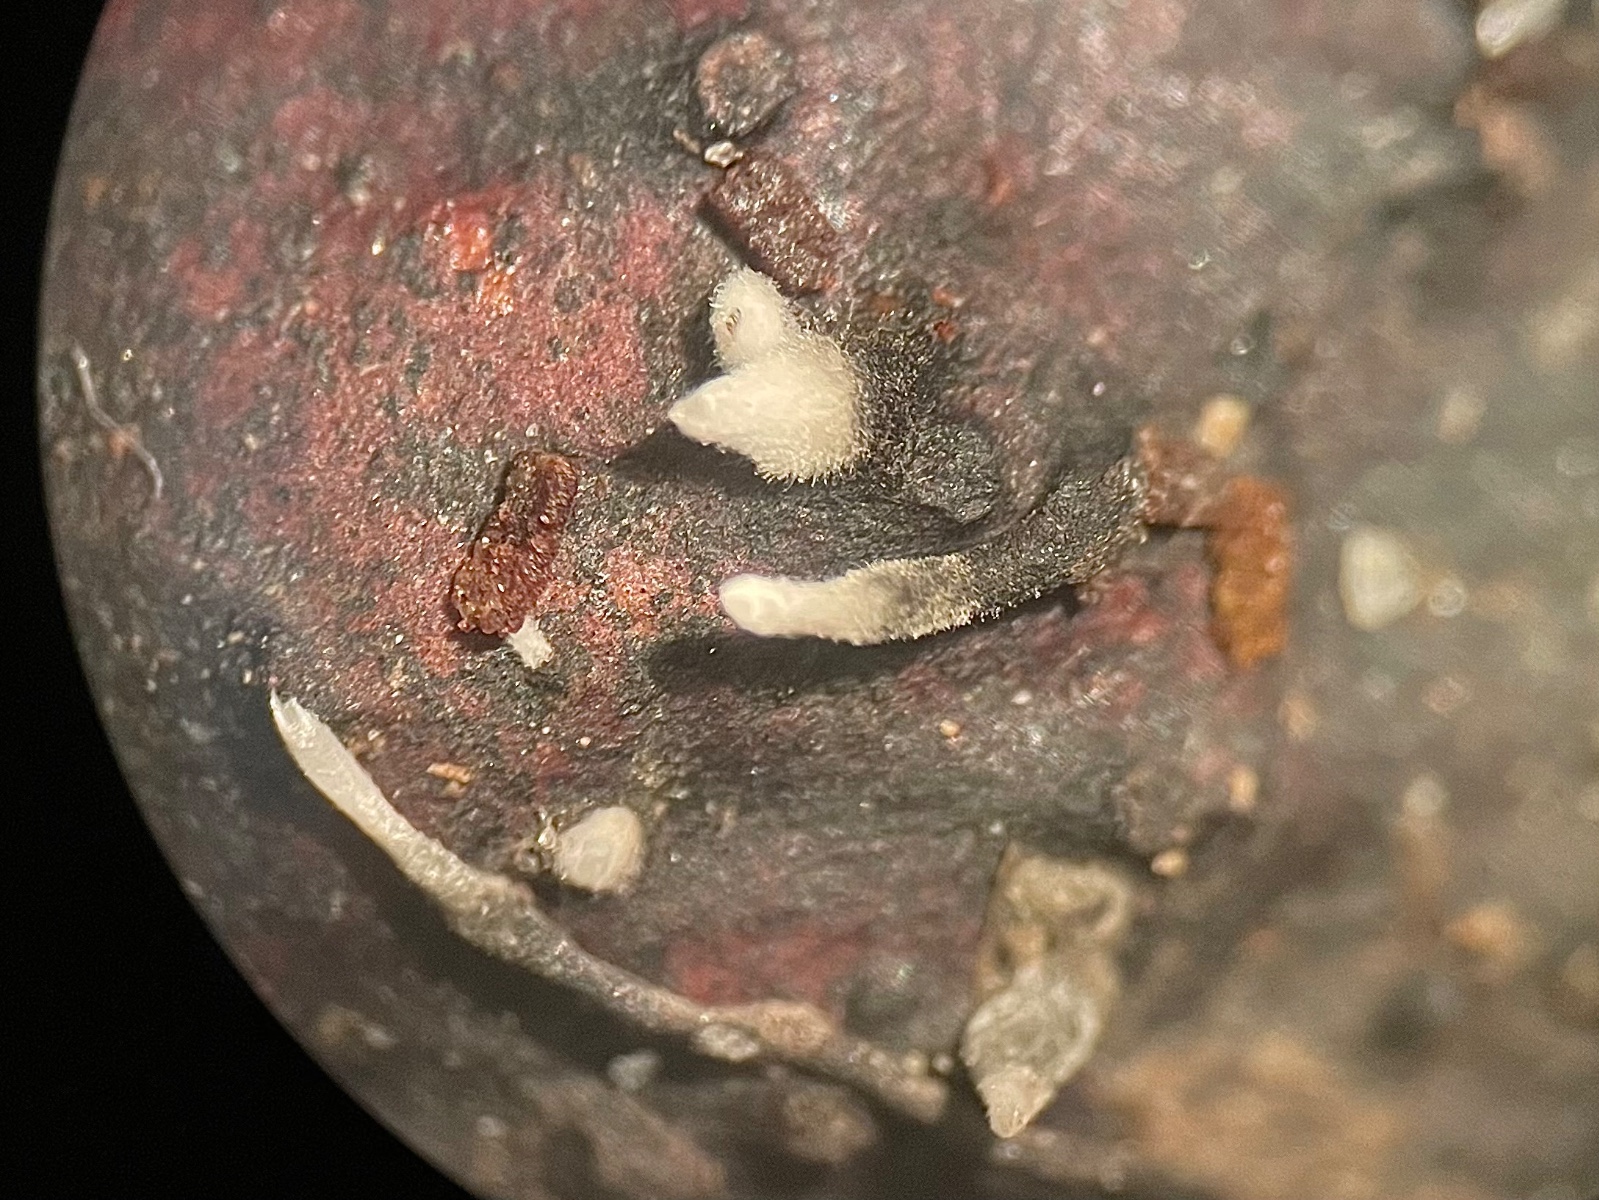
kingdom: Fungi
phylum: Ascomycota
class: Sordariomycetes
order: Xylariales
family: Xylariaceae
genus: Xylaria
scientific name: Xylaria carpophila
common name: bogskål-stødsvamp
